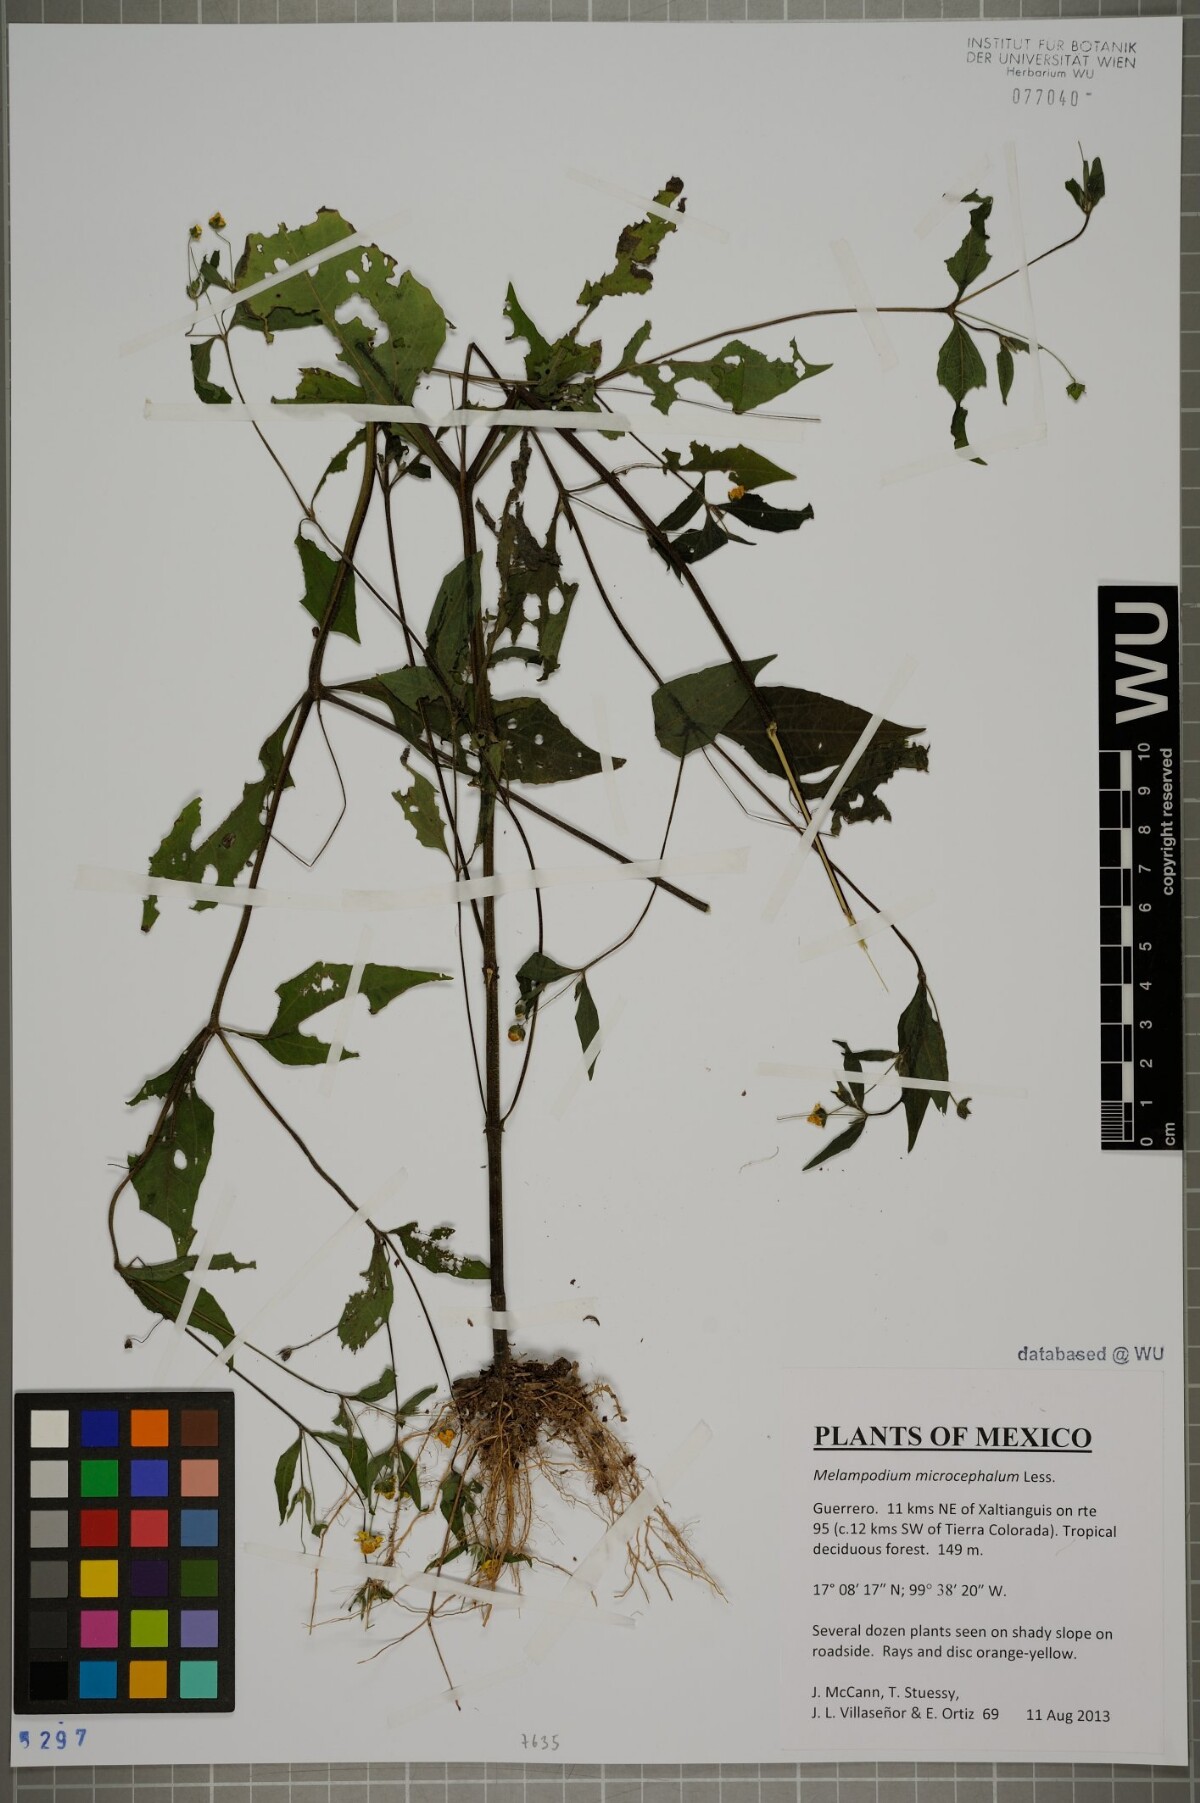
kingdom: Plantae
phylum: Tracheophyta
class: Magnoliopsida
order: Asterales
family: Asteraceae
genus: Melampodium
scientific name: Melampodium microcephalum
